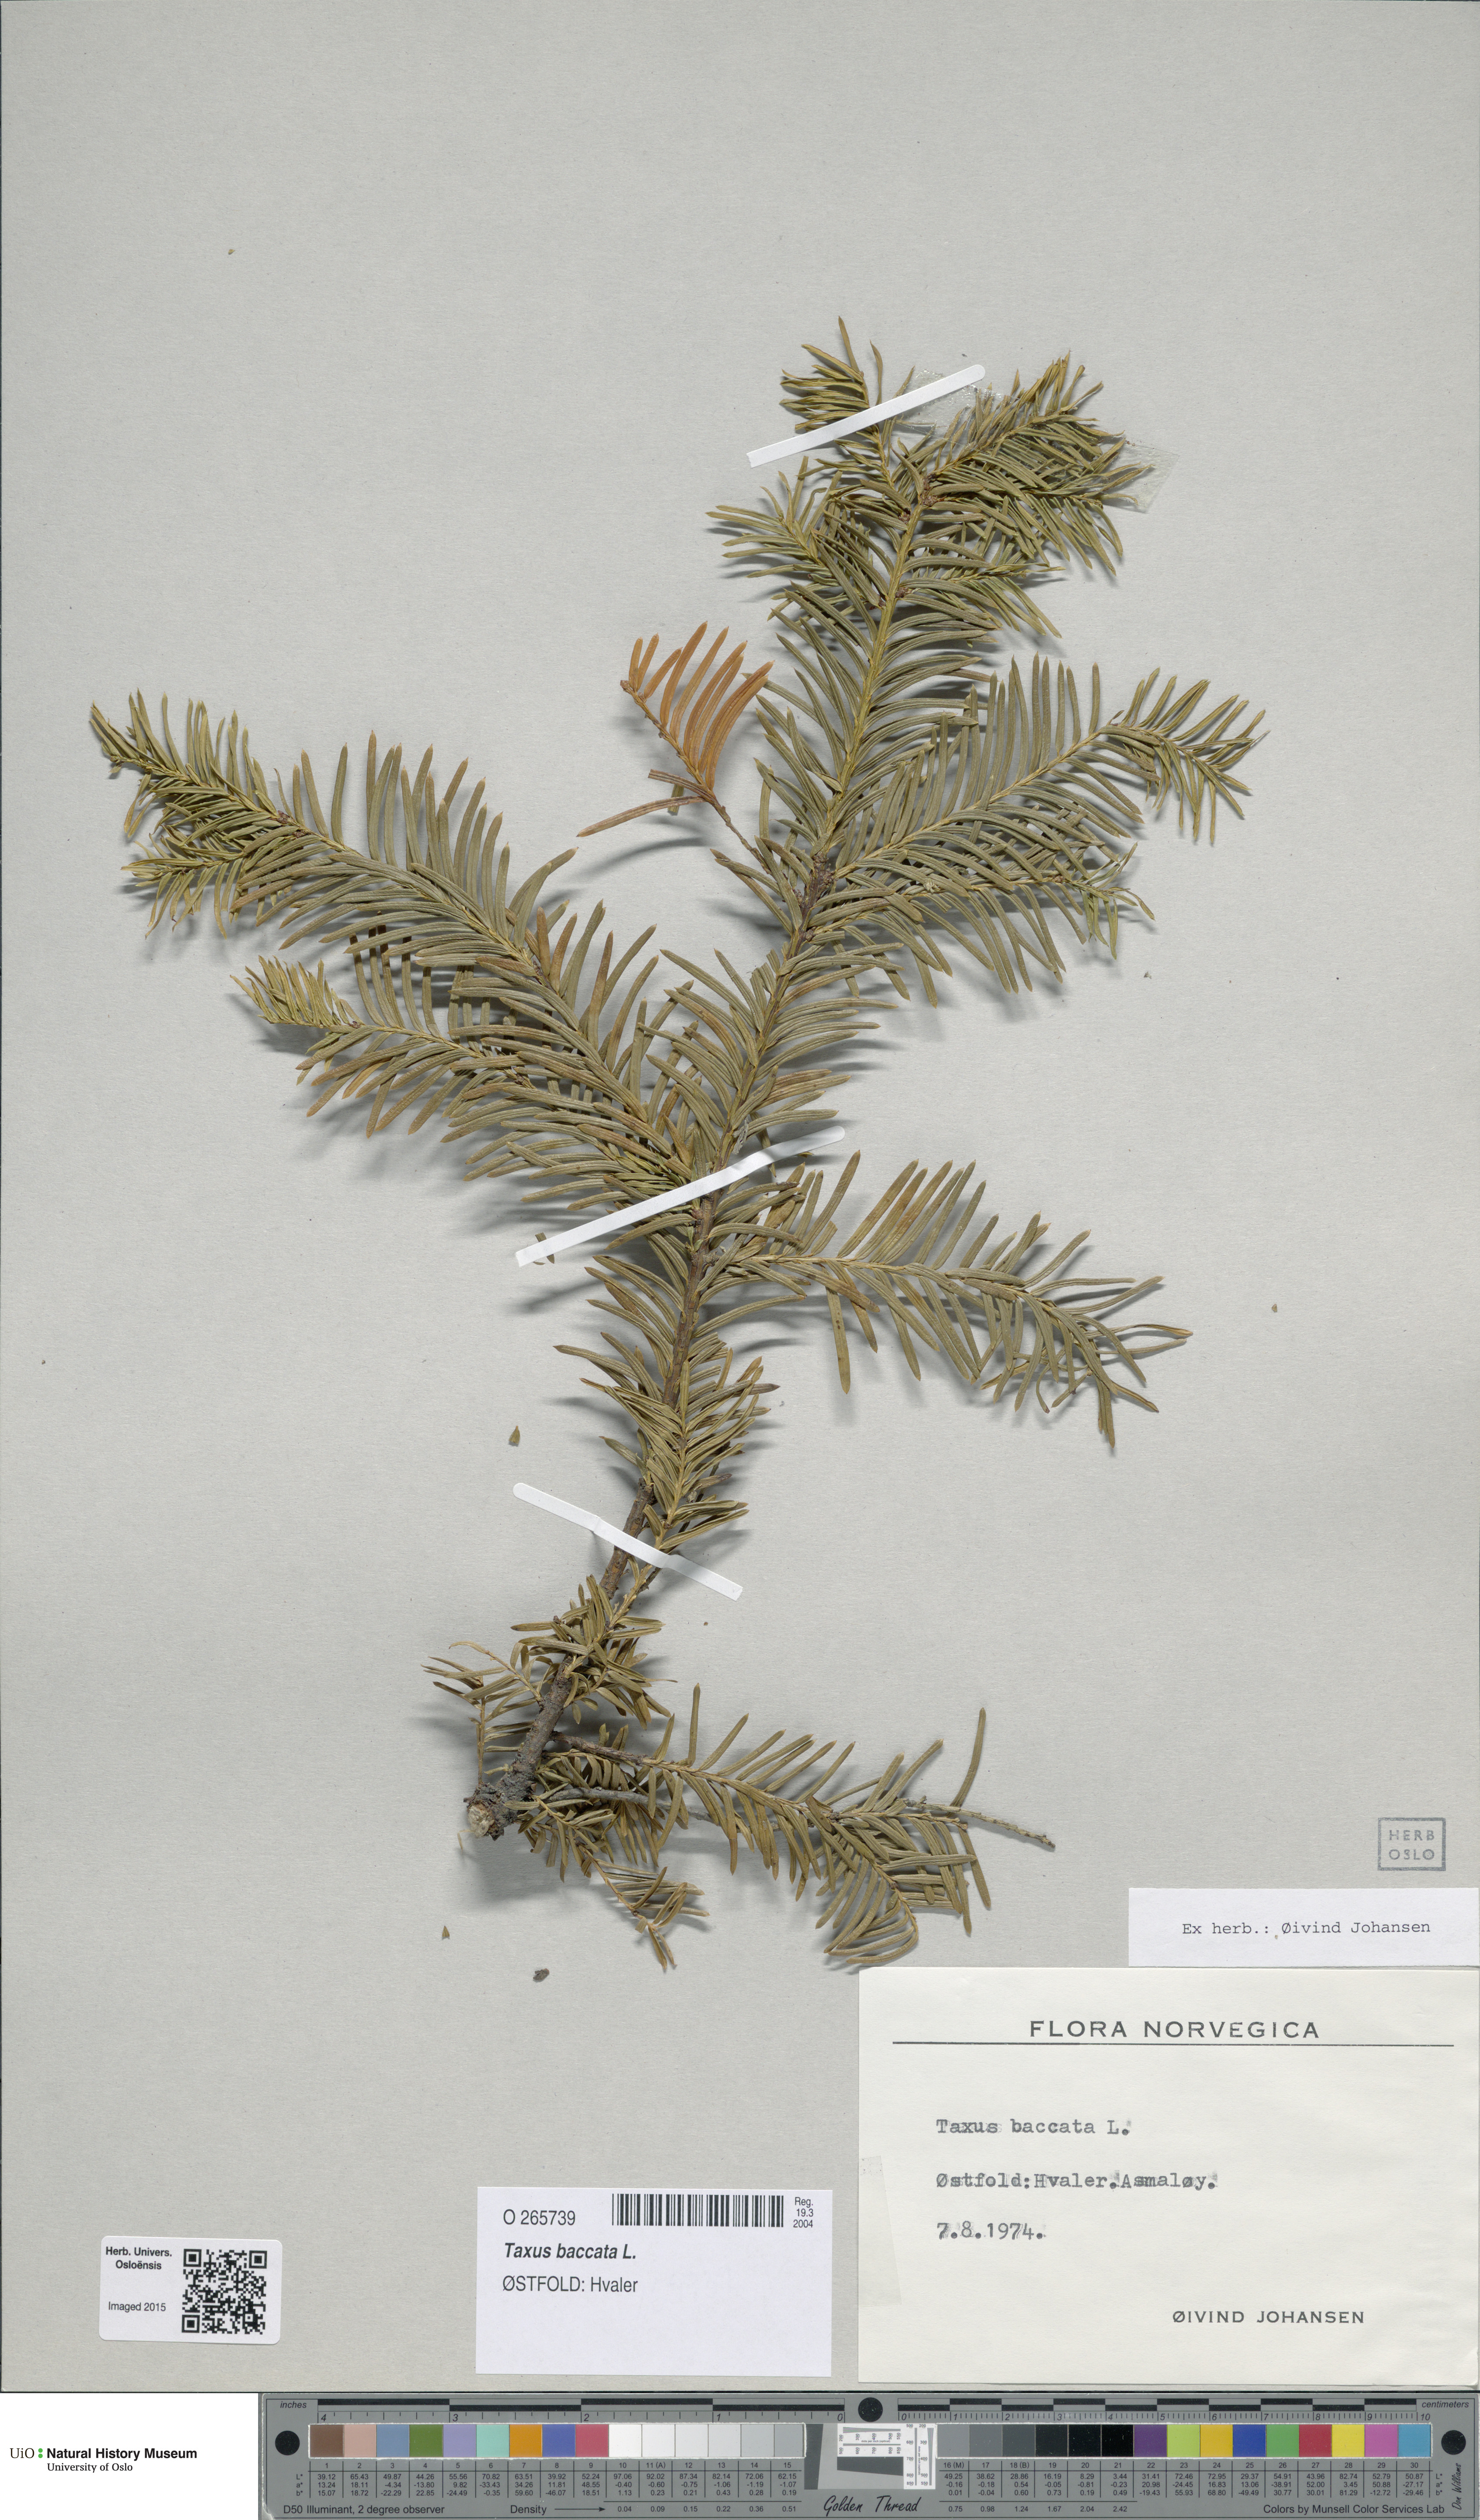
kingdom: Plantae
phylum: Tracheophyta
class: Pinopsida
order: Pinales
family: Taxaceae
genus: Taxus
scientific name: Taxus baccata
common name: Yew
